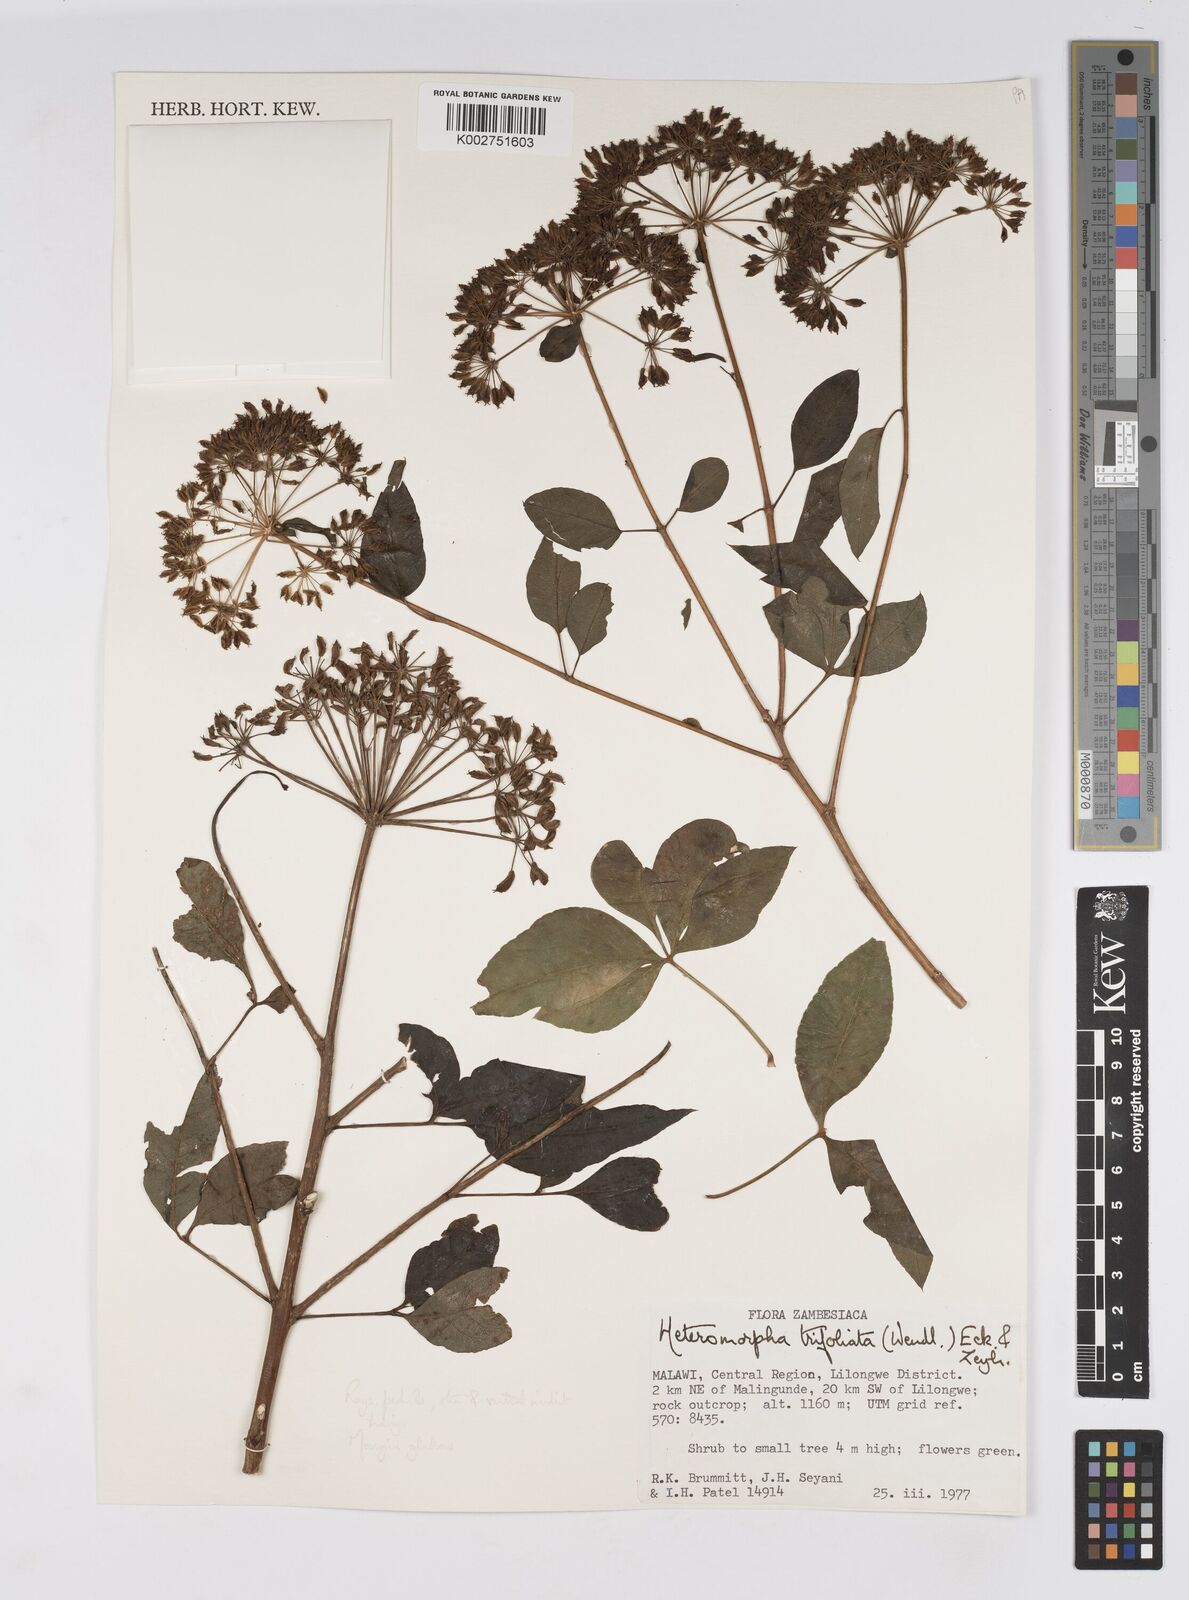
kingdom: Plantae
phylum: Tracheophyta
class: Magnoliopsida
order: Apiales
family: Apiaceae
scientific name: Apiaceae
